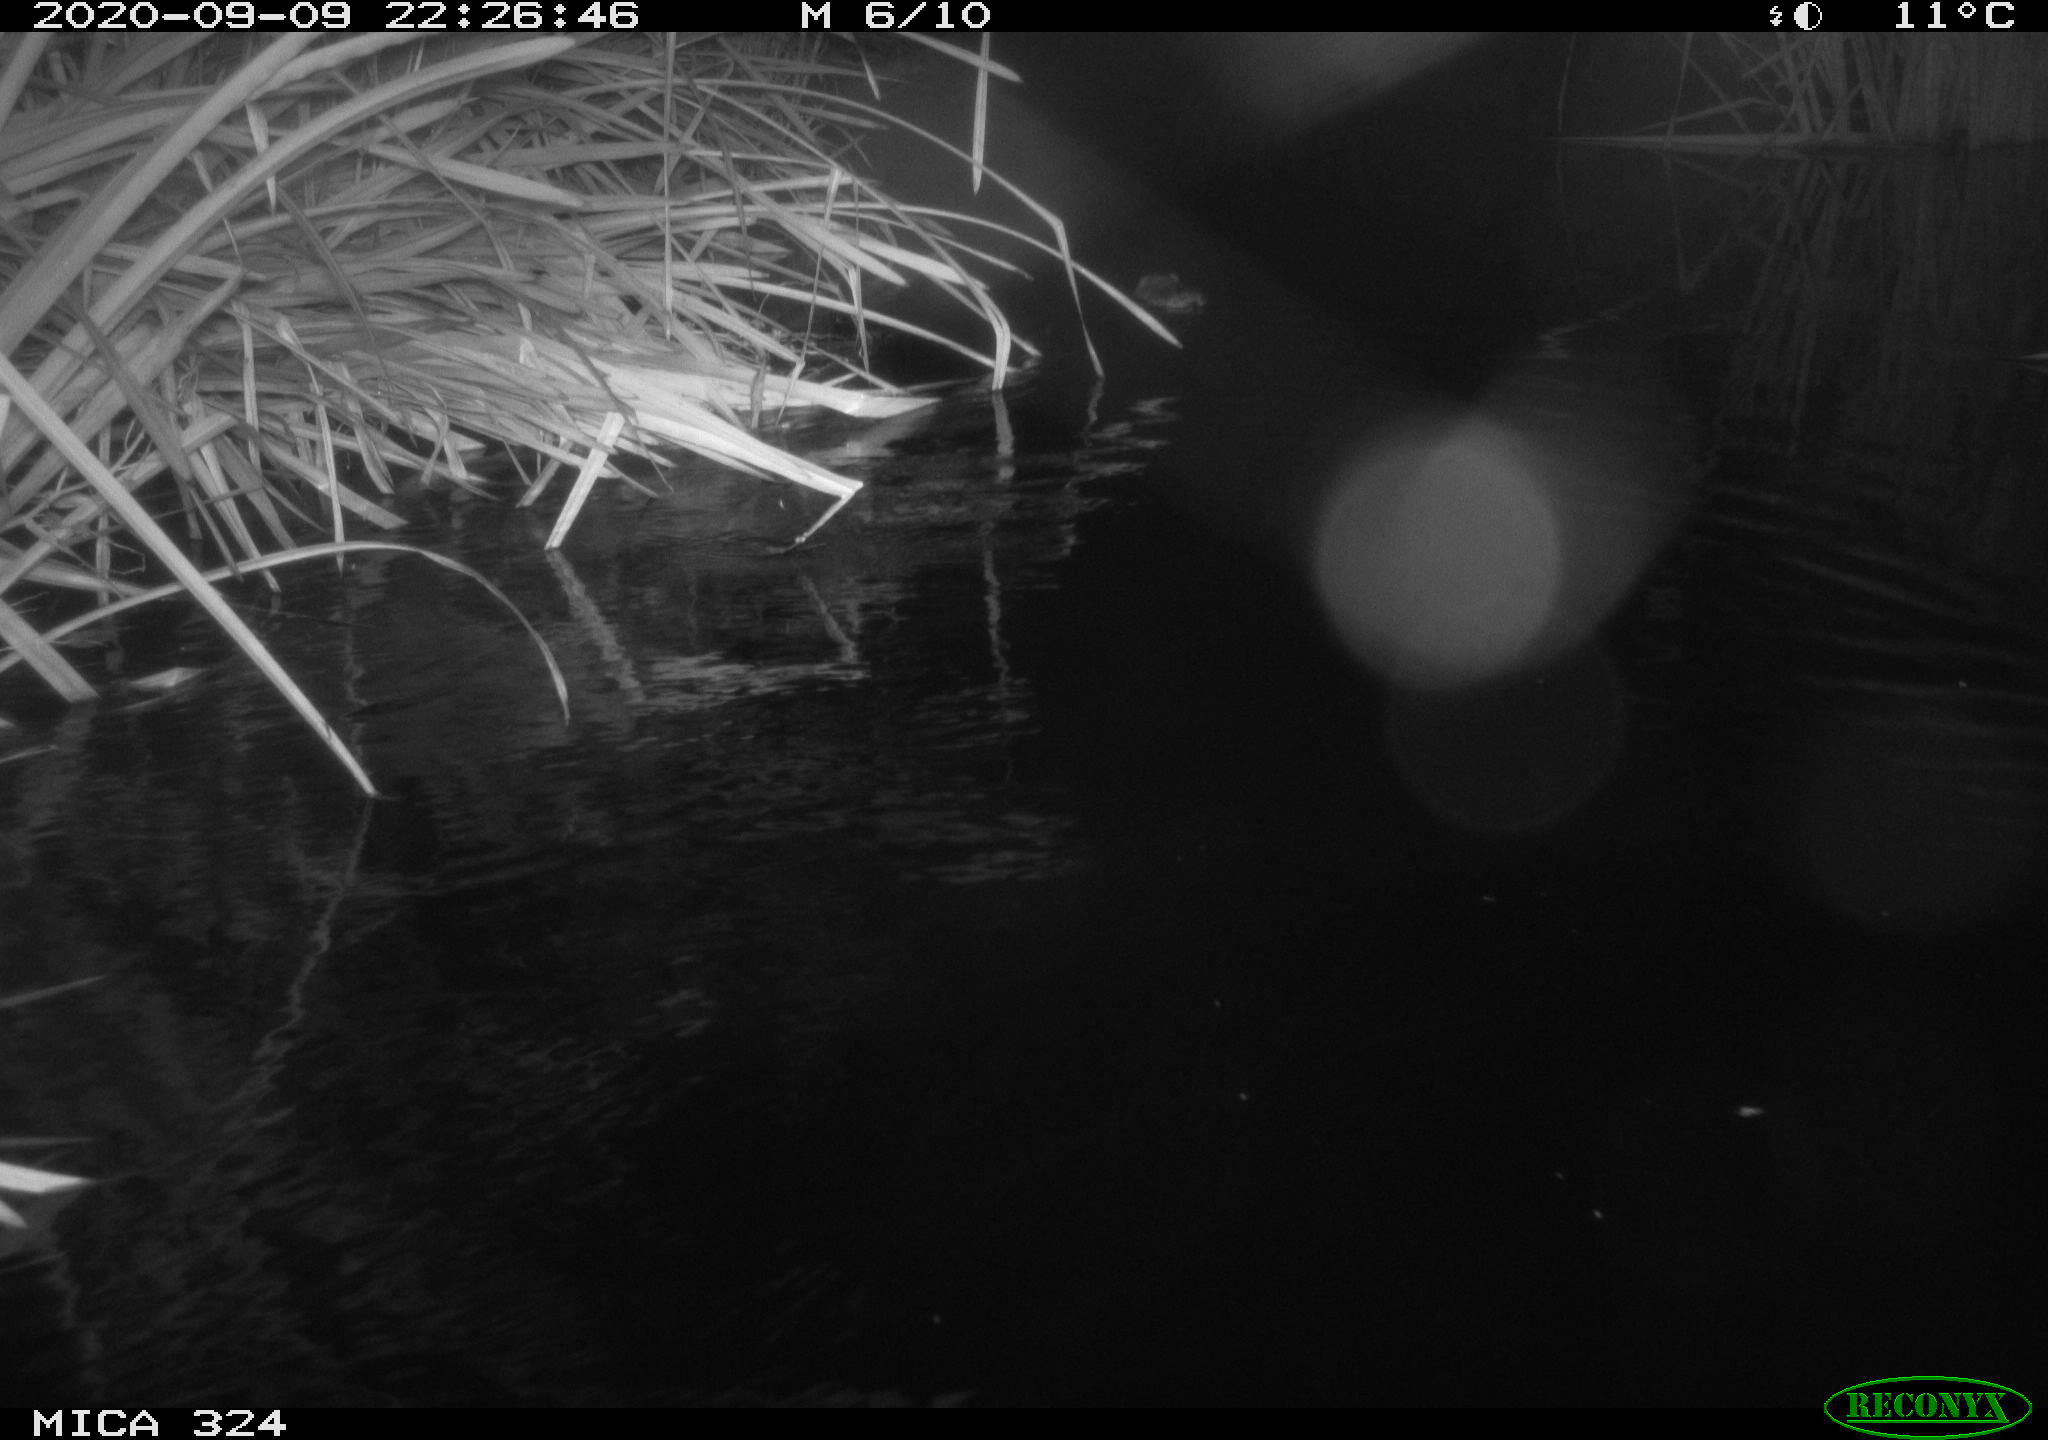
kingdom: Animalia
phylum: Chordata
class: Mammalia
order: Rodentia
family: Cricetidae
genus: Ondatra
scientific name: Ondatra zibethicus
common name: Muskrat
